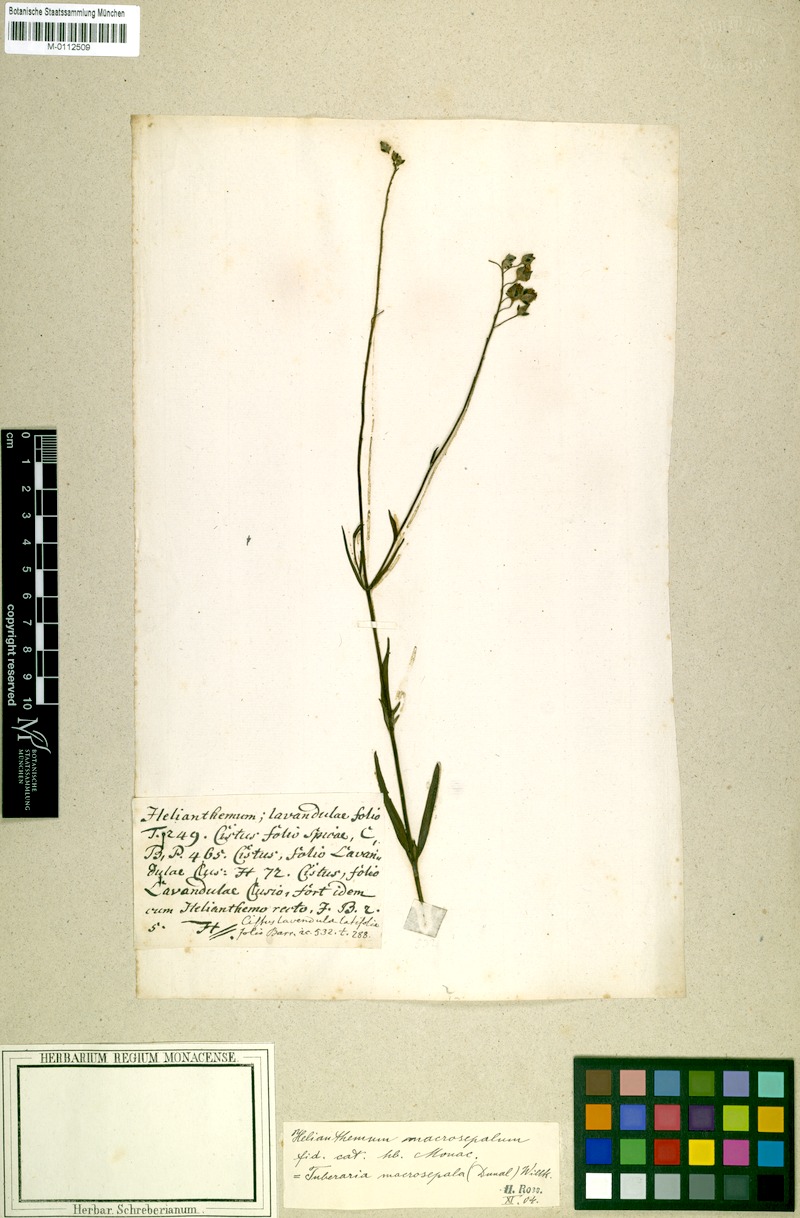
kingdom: Plantae
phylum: Tracheophyta
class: Magnoliopsida
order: Malvales
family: Cistaceae
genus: Helianthemum
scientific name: Helianthemum syriacum
